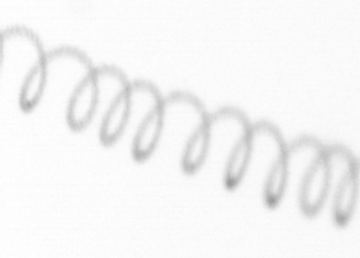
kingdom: Chromista
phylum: Ochrophyta
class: Bacillariophyceae
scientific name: Bacillariophyceae
